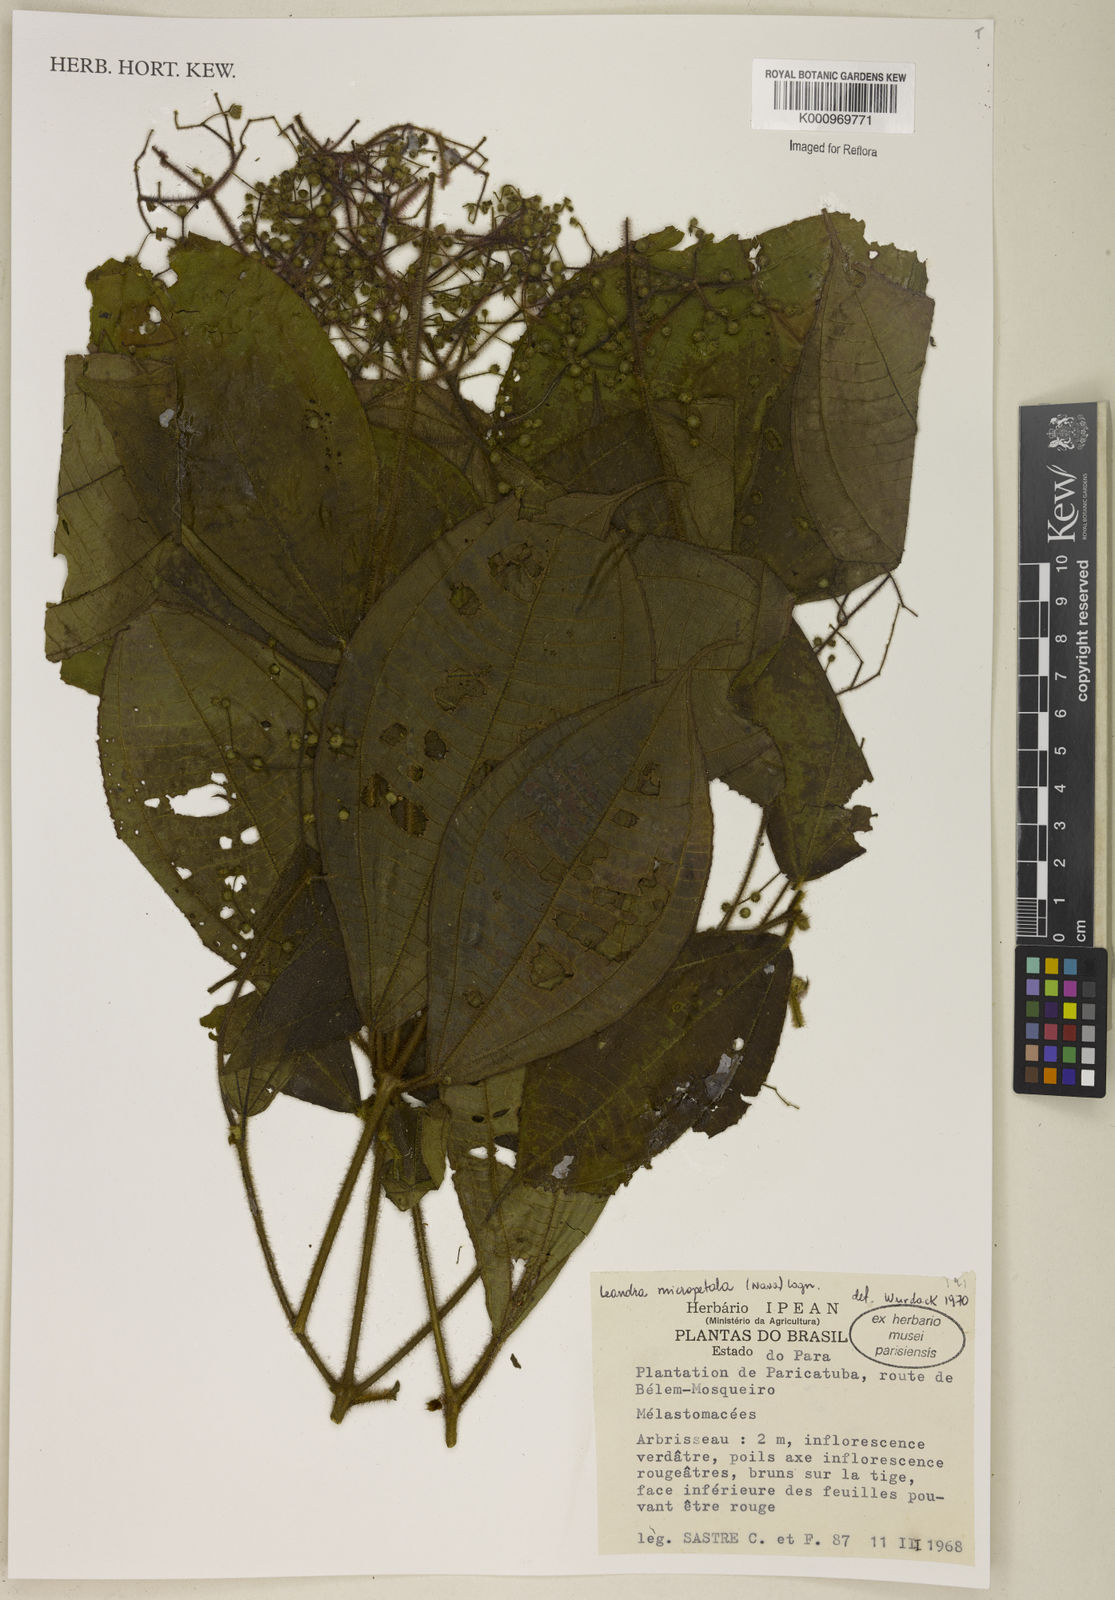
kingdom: Plantae
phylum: Tracheophyta
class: Magnoliopsida
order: Myrtales
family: Melastomataceae
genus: Miconia
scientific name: Miconia nanopetala
